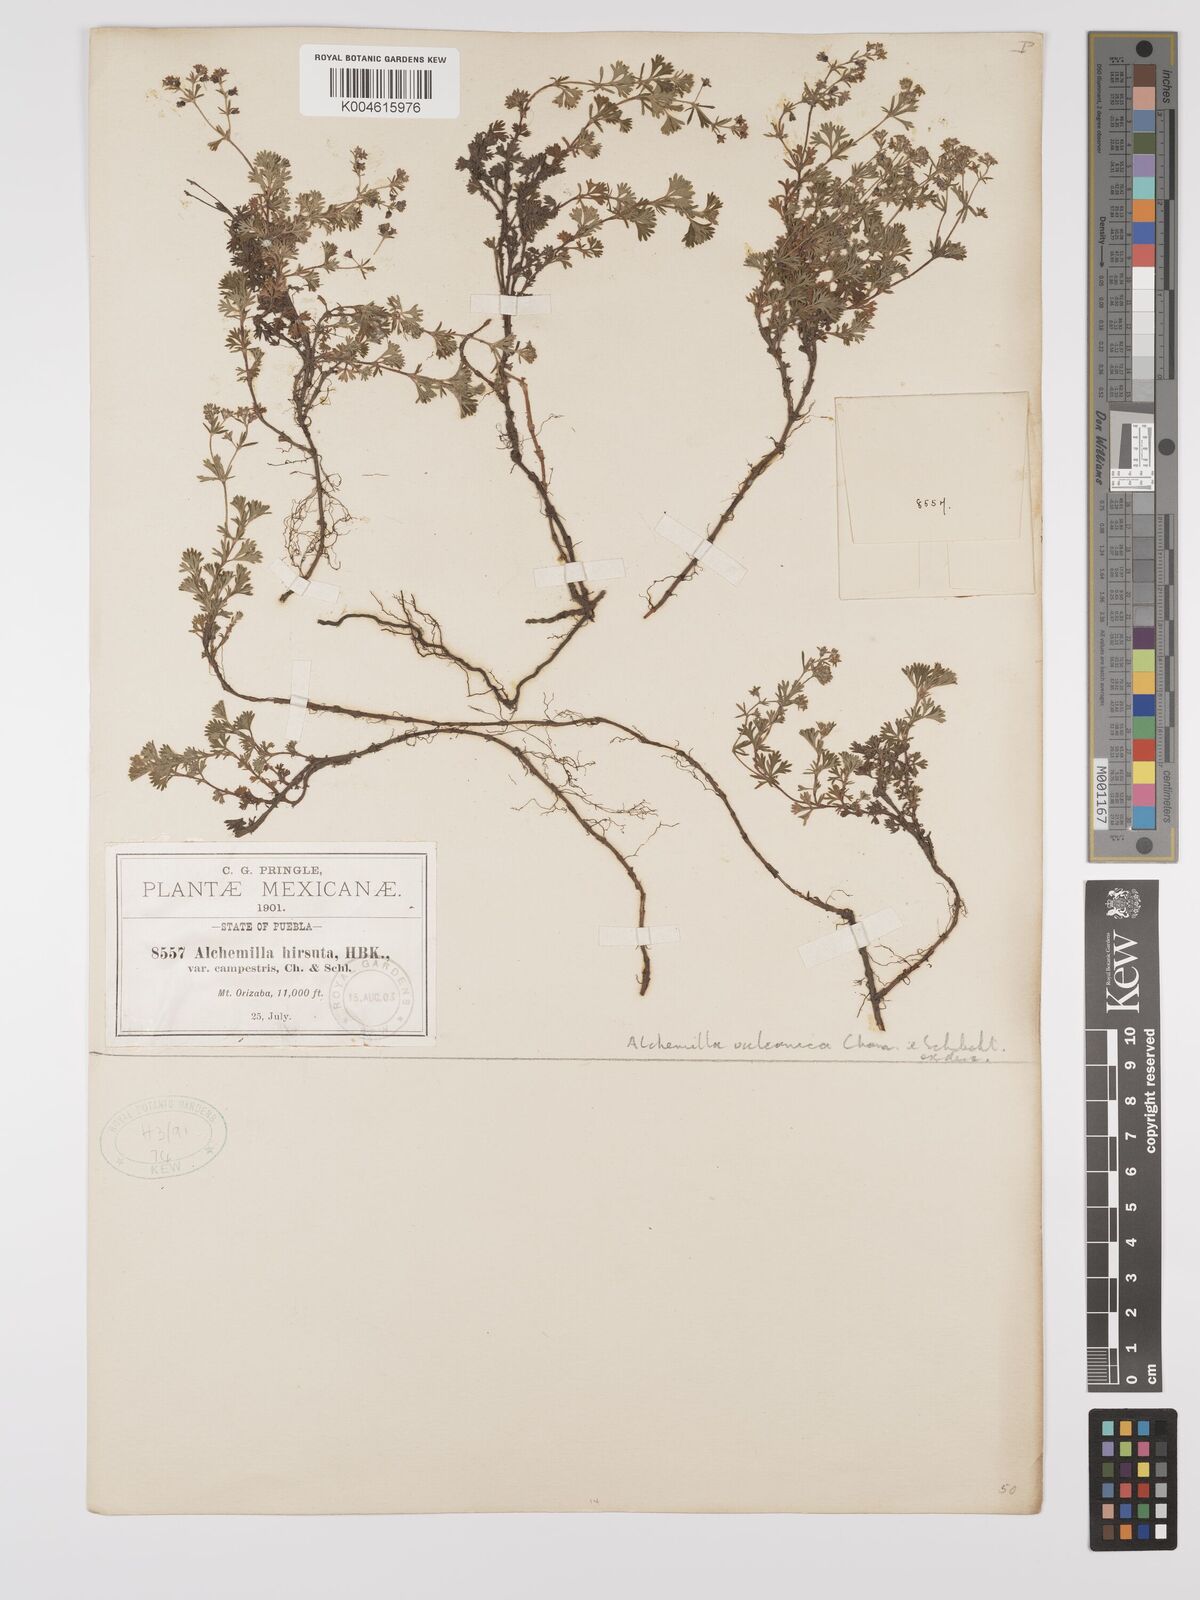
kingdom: Plantae
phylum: Tracheophyta
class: Magnoliopsida
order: Rosales
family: Rosaceae
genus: Alchemilla
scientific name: Alchemilla
